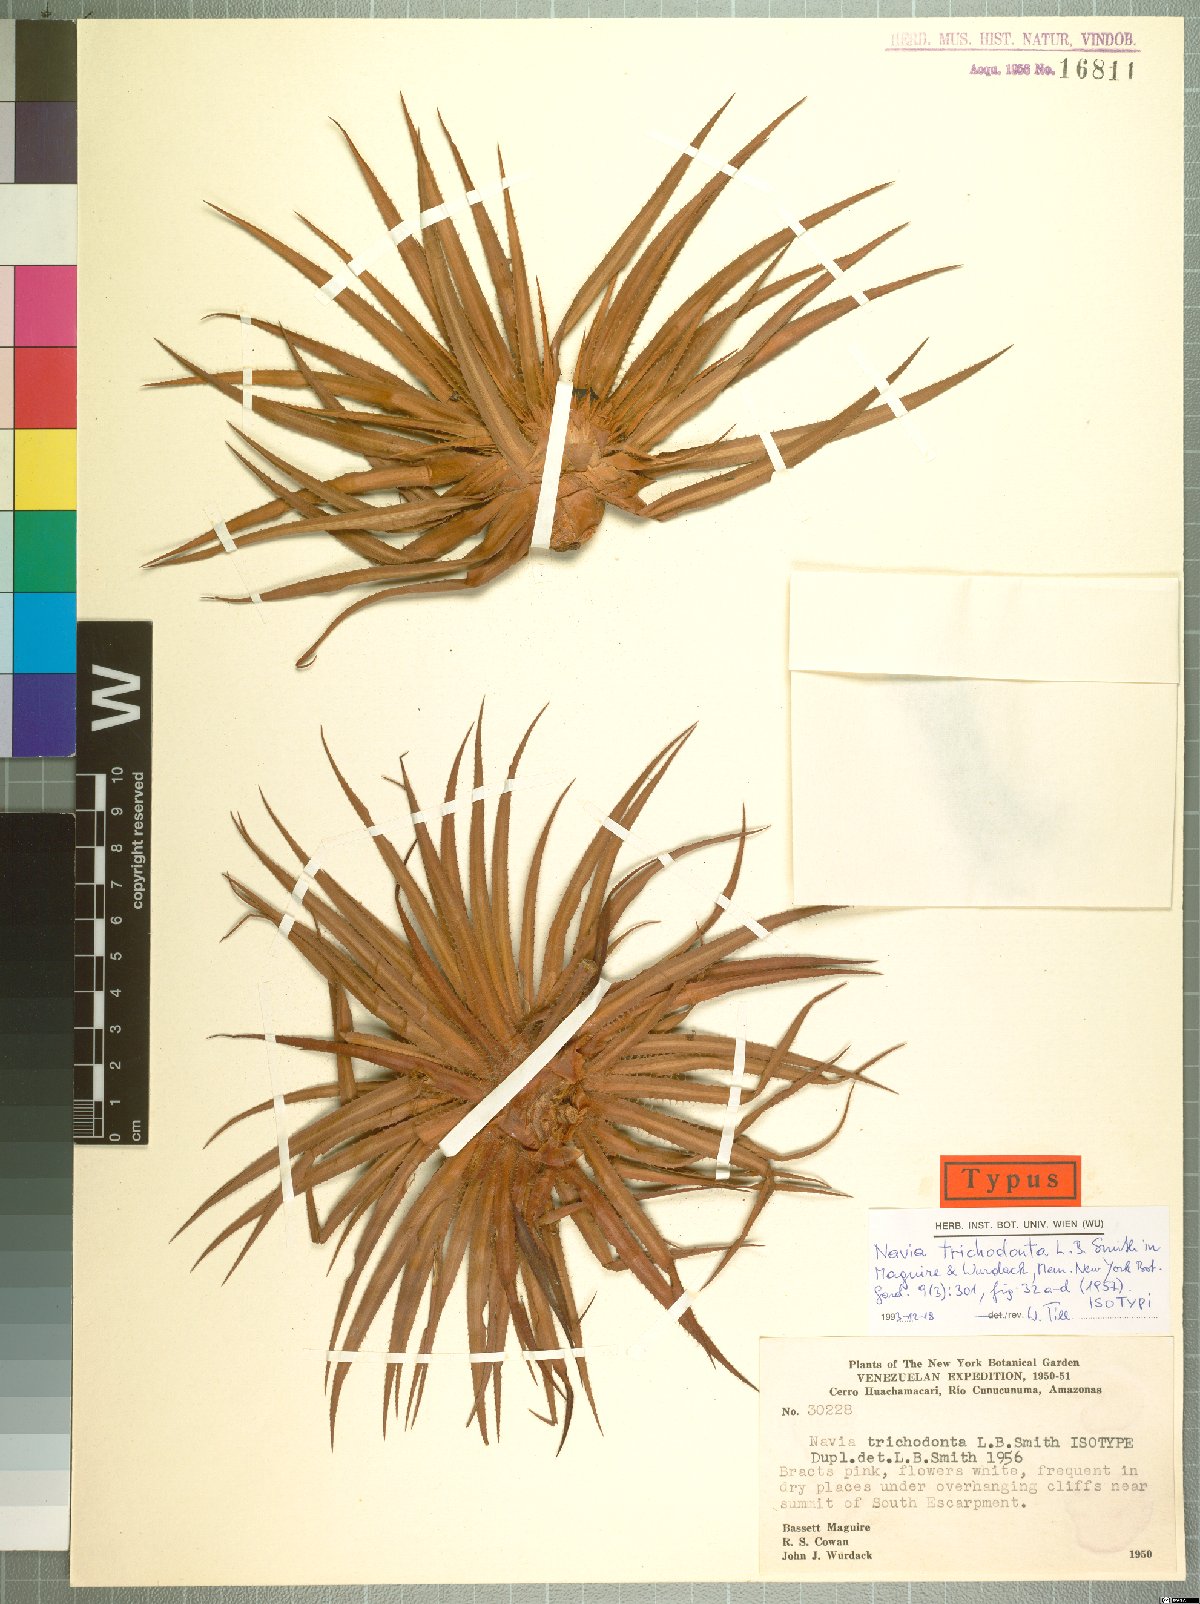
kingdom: Plantae
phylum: Tracheophyta
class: Liliopsida
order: Poales
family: Bromeliaceae
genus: Navia
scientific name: Navia trichodonta
